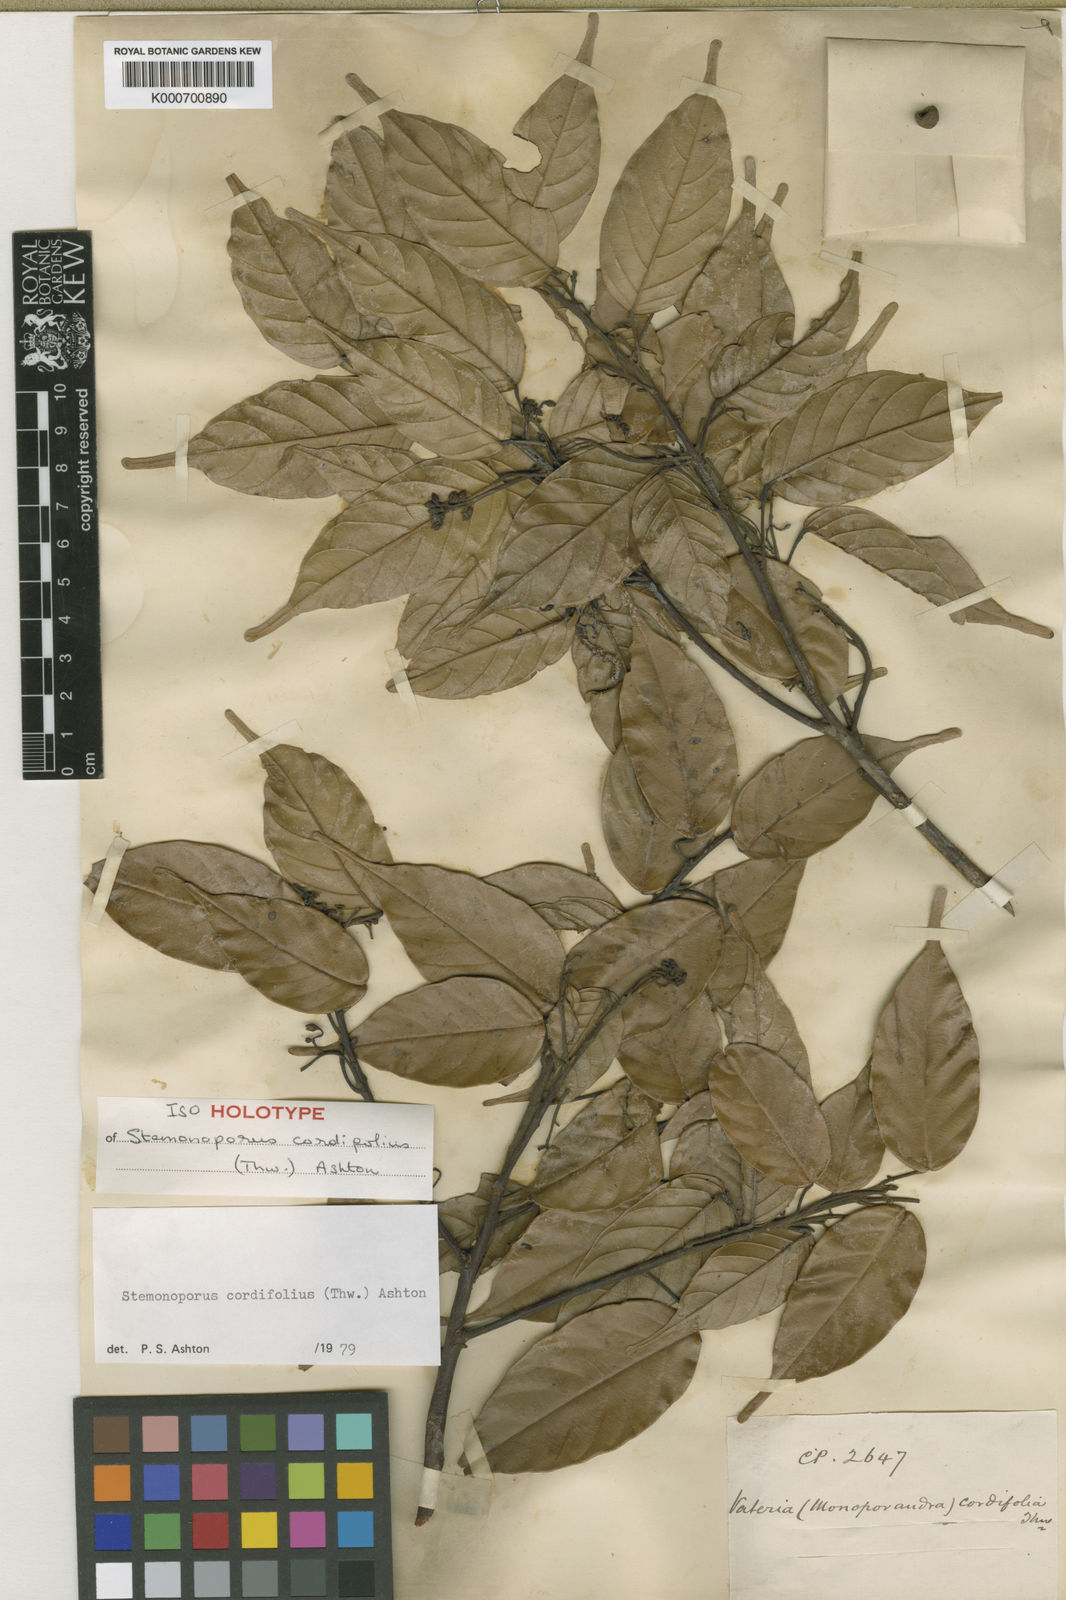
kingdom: Plantae
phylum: Tracheophyta
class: Magnoliopsida
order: Malvales
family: Dipterocarpaceae
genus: Stemonoporus
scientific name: Stemonoporus cordifolius
